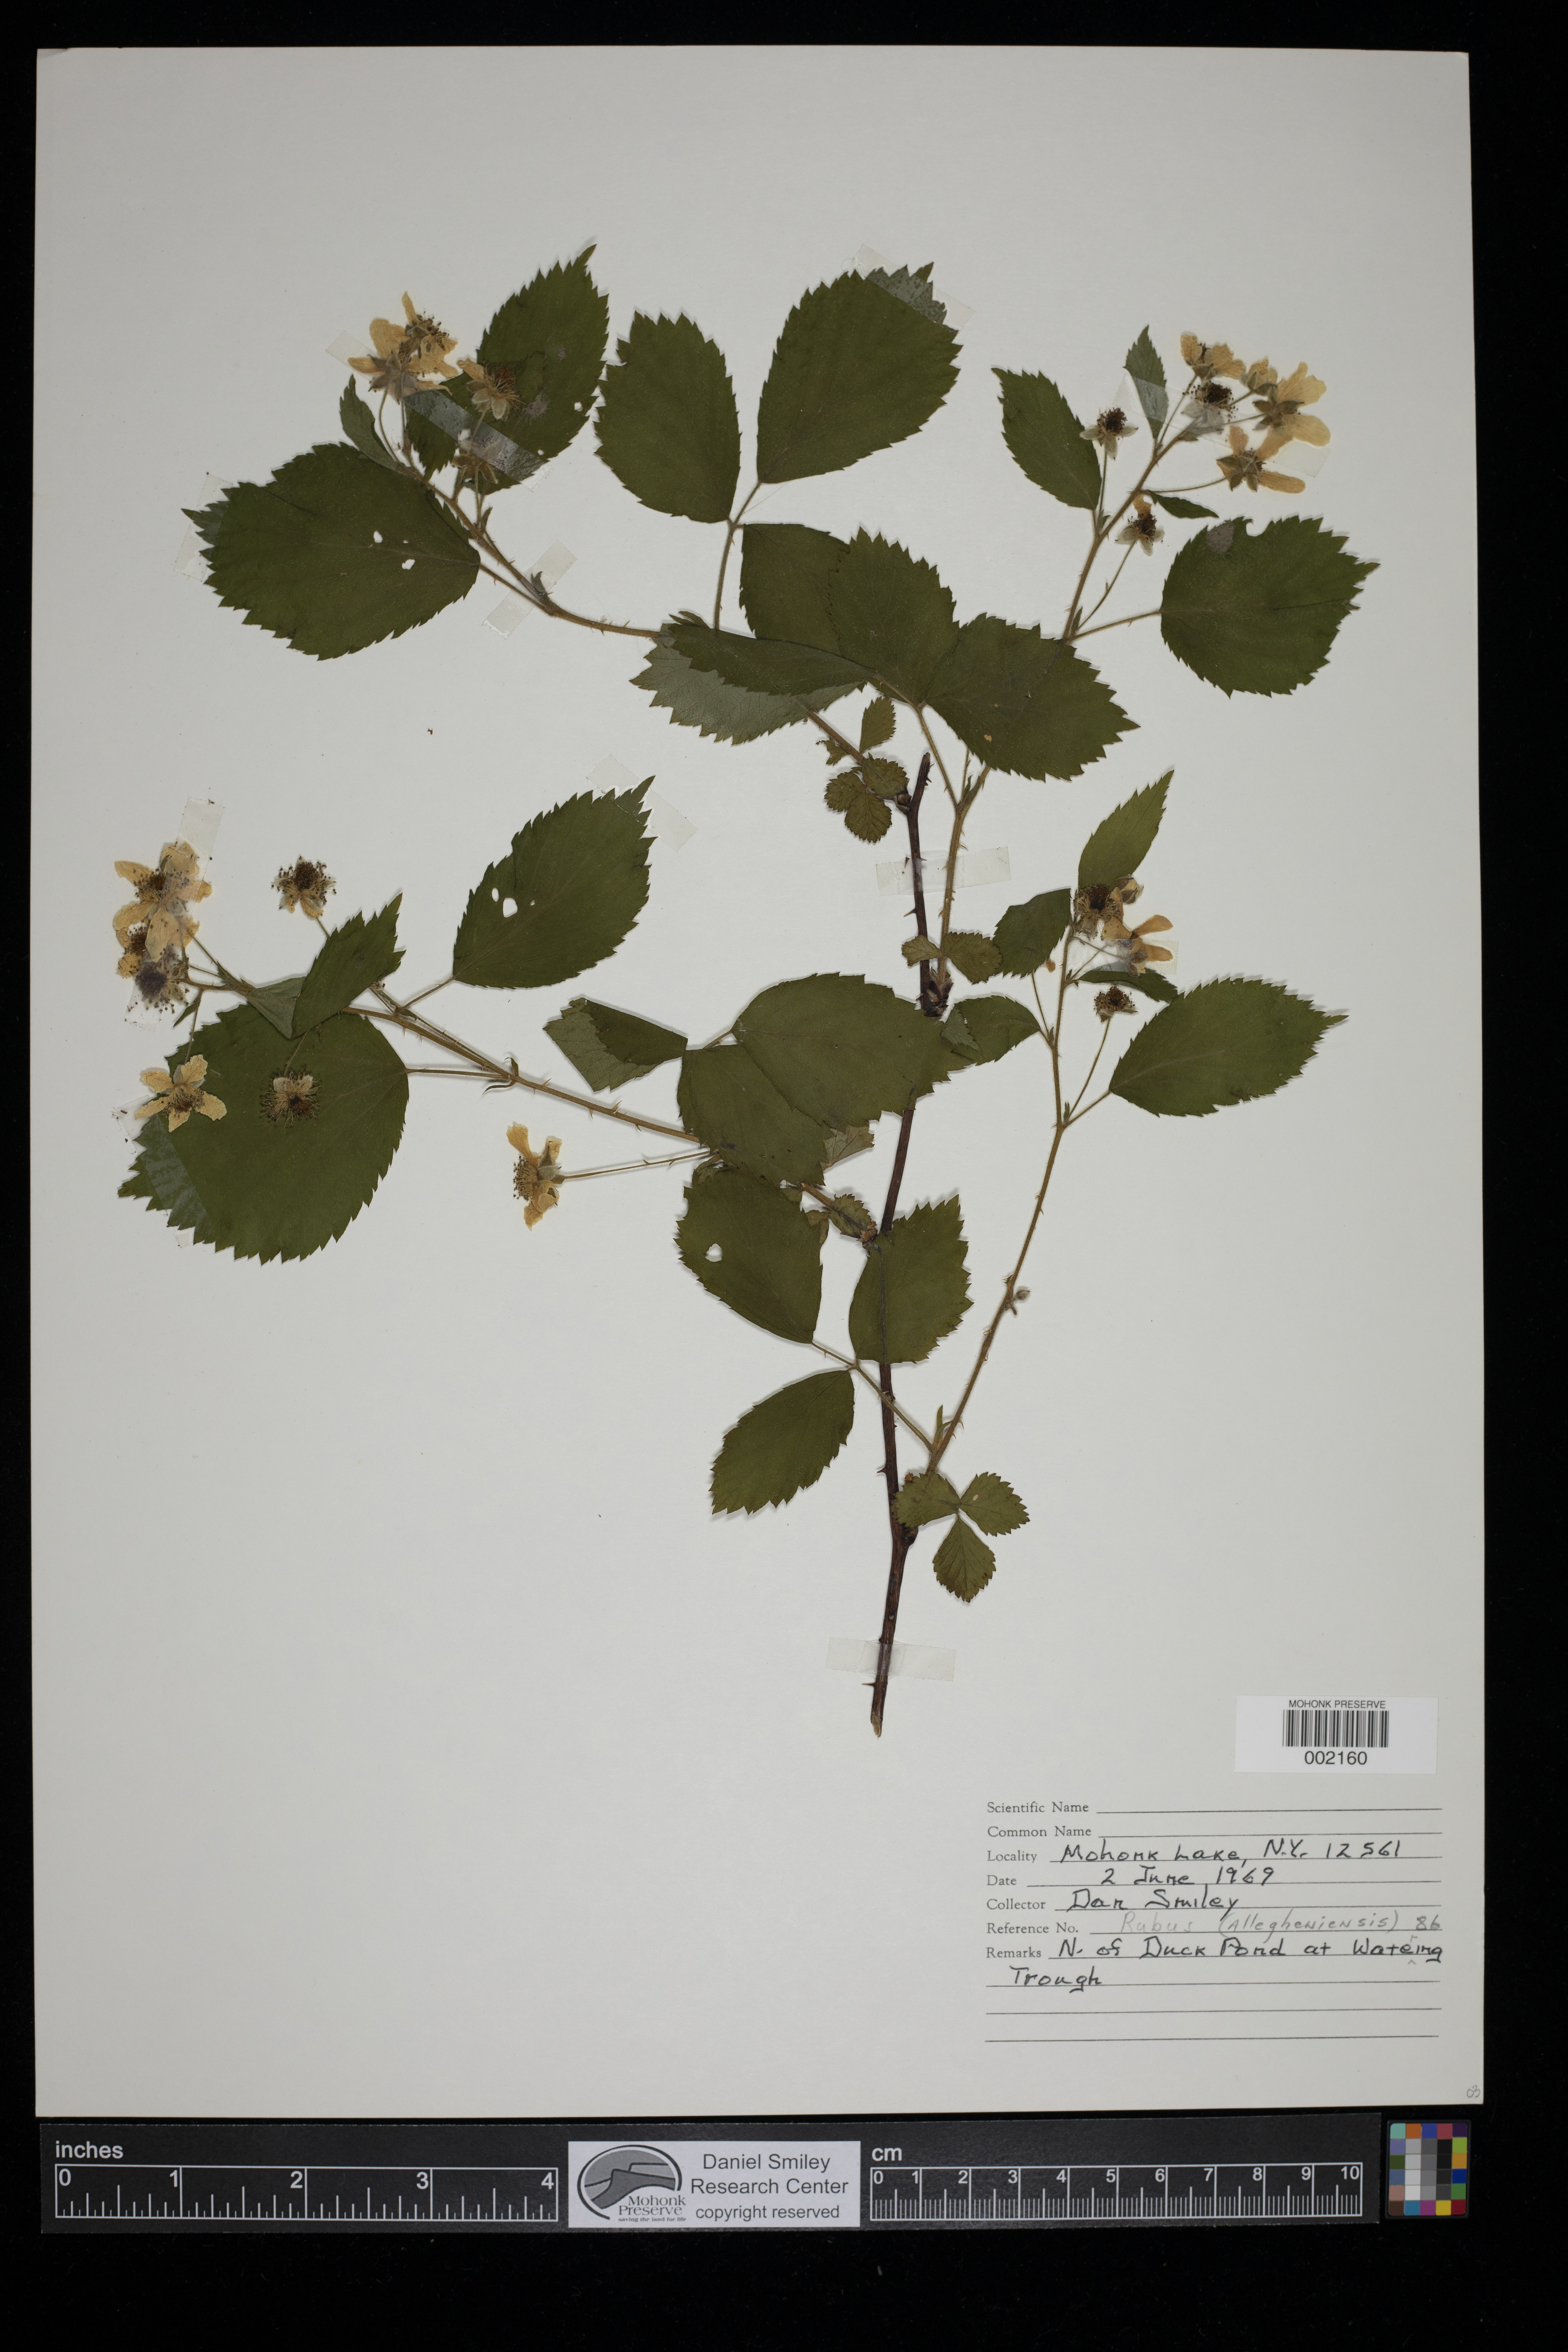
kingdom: Plantae
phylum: Tracheophyta
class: Magnoliopsida
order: Rosales
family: Rosaceae
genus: Rubus
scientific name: Rubus allegheniensis
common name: Allegheny blackberry
